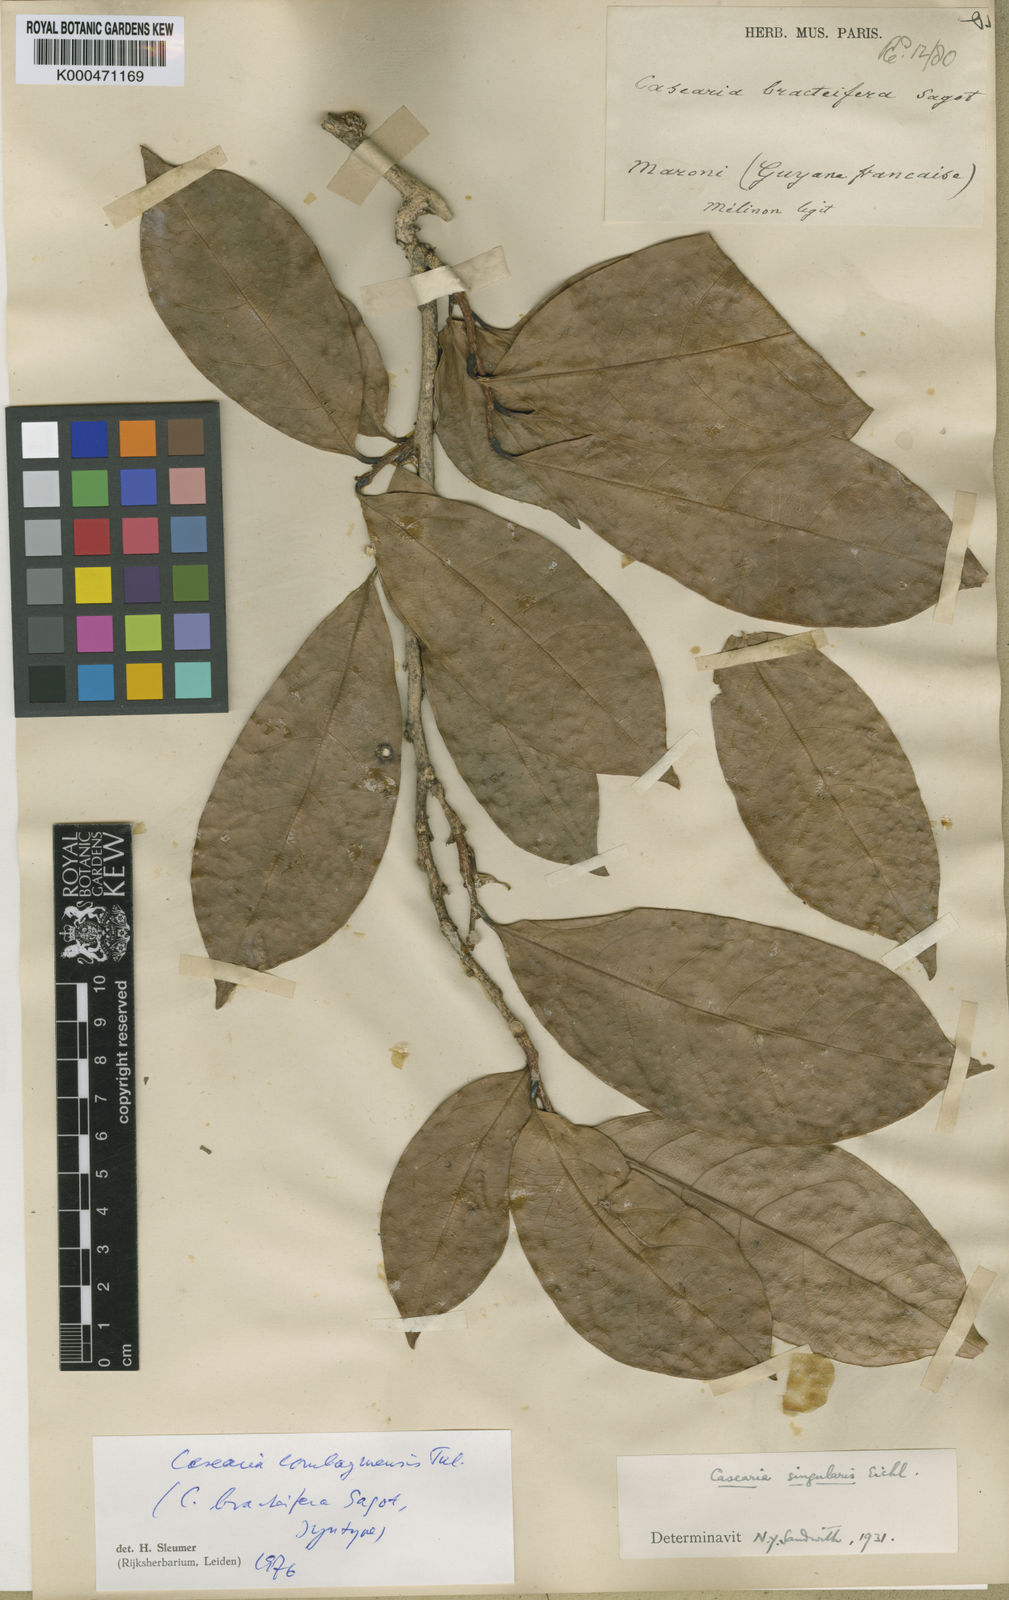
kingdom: Plantae
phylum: Tracheophyta
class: Magnoliopsida
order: Malpighiales
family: Salicaceae
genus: Casearia
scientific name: Casearia combaymensis
